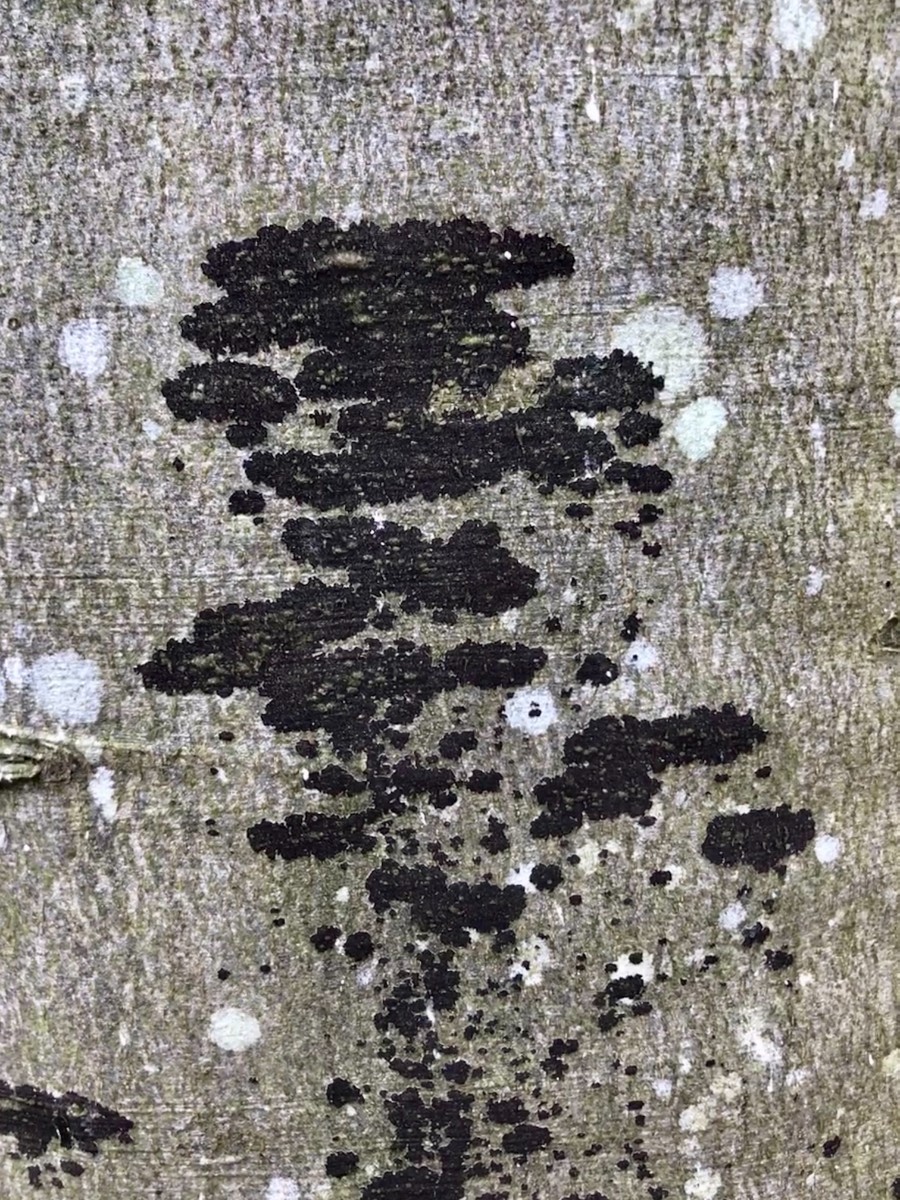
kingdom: Fungi
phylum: Ascomycota
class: Leotiomycetes
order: Rhytismatales
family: Ascodichaenaceae
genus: Ascodichaena
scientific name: Ascodichaena rugosa
